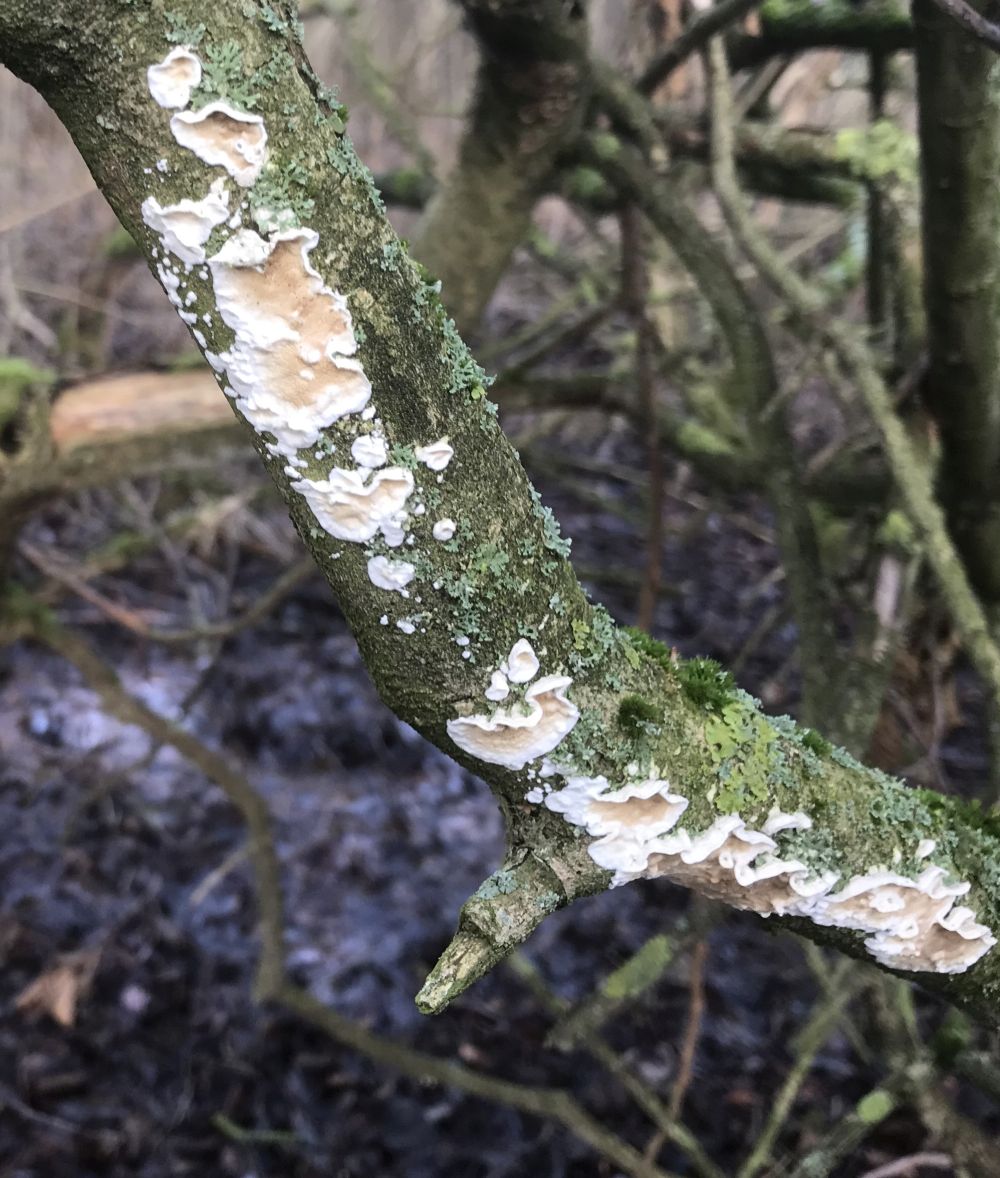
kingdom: Fungi
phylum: Basidiomycota
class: Agaricomycetes
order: Polyporales
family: Irpicaceae
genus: Byssomerulius
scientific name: Byssomerulius corium
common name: læder-åresvamp
